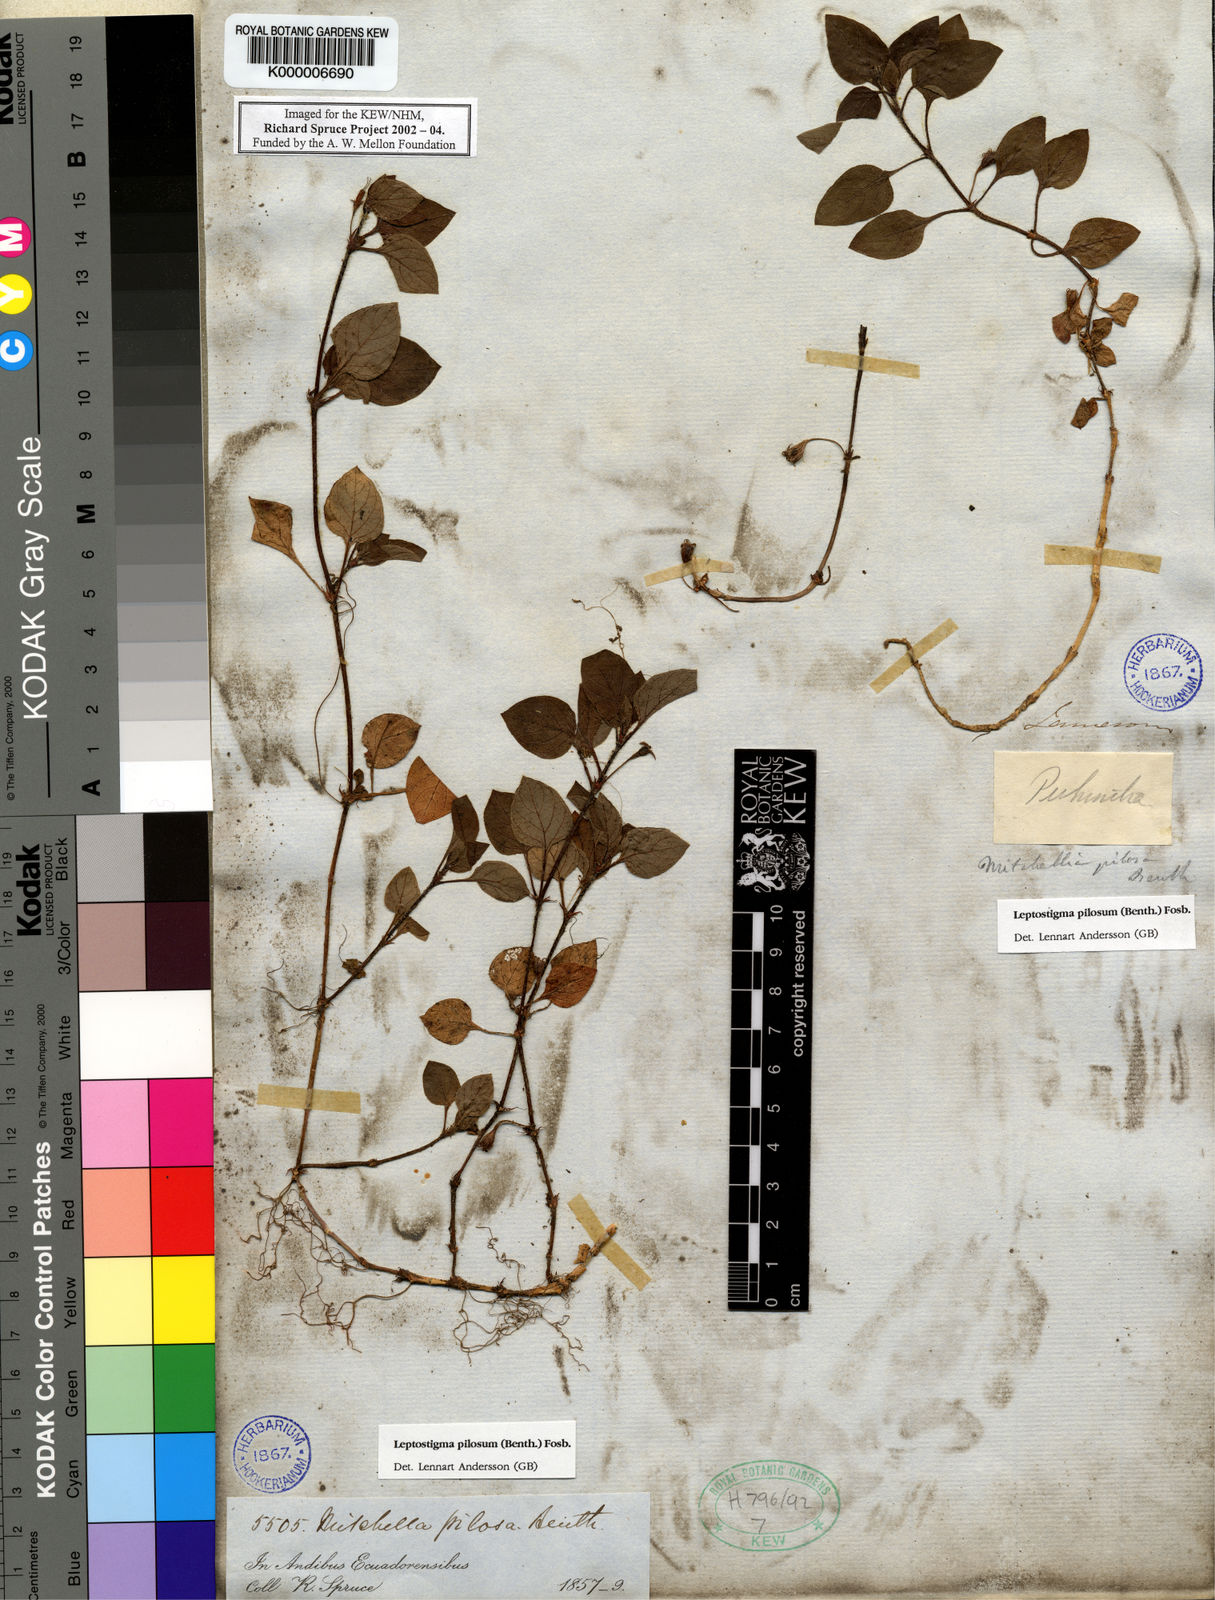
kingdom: Plantae
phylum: Tracheophyta
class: Magnoliopsida
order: Gentianales
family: Rubiaceae
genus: Leptostigma
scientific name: Leptostigma pilosum
